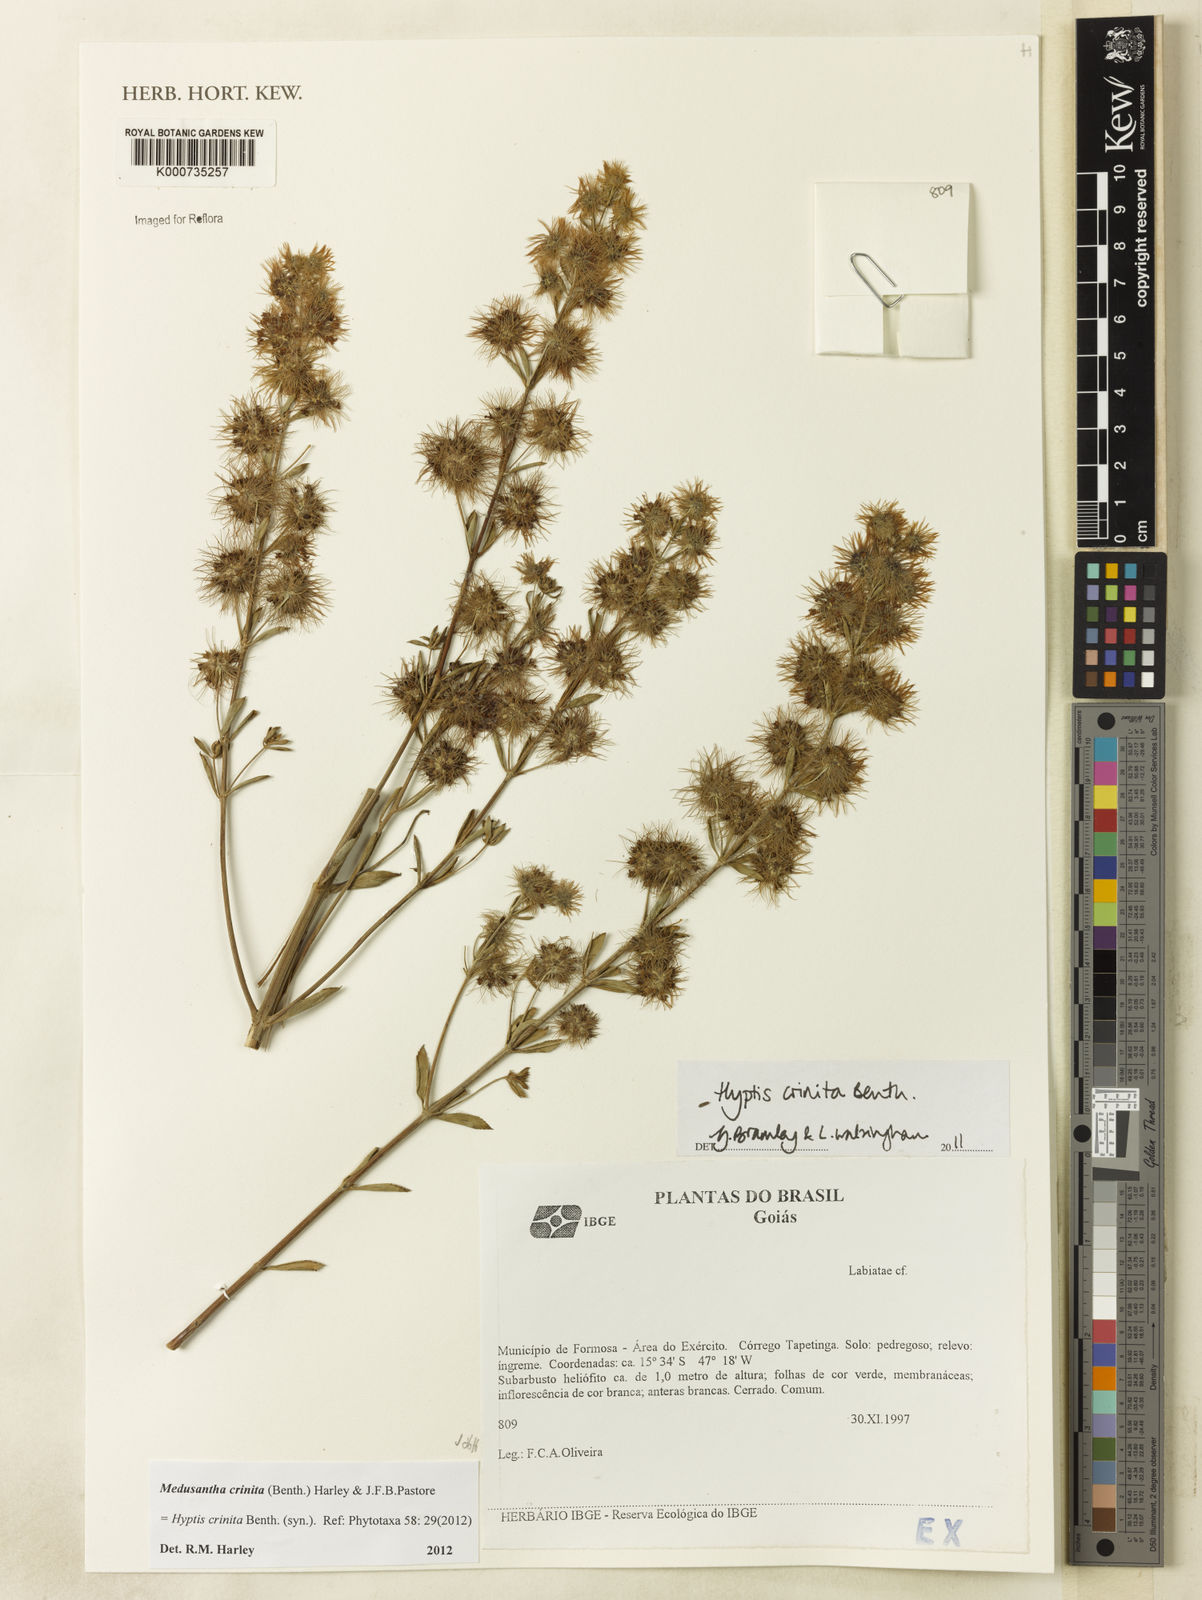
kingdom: Plantae
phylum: Tracheophyta
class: Magnoliopsida
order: Lamiales
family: Lamiaceae
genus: Medusantha
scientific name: Medusantha crinita
